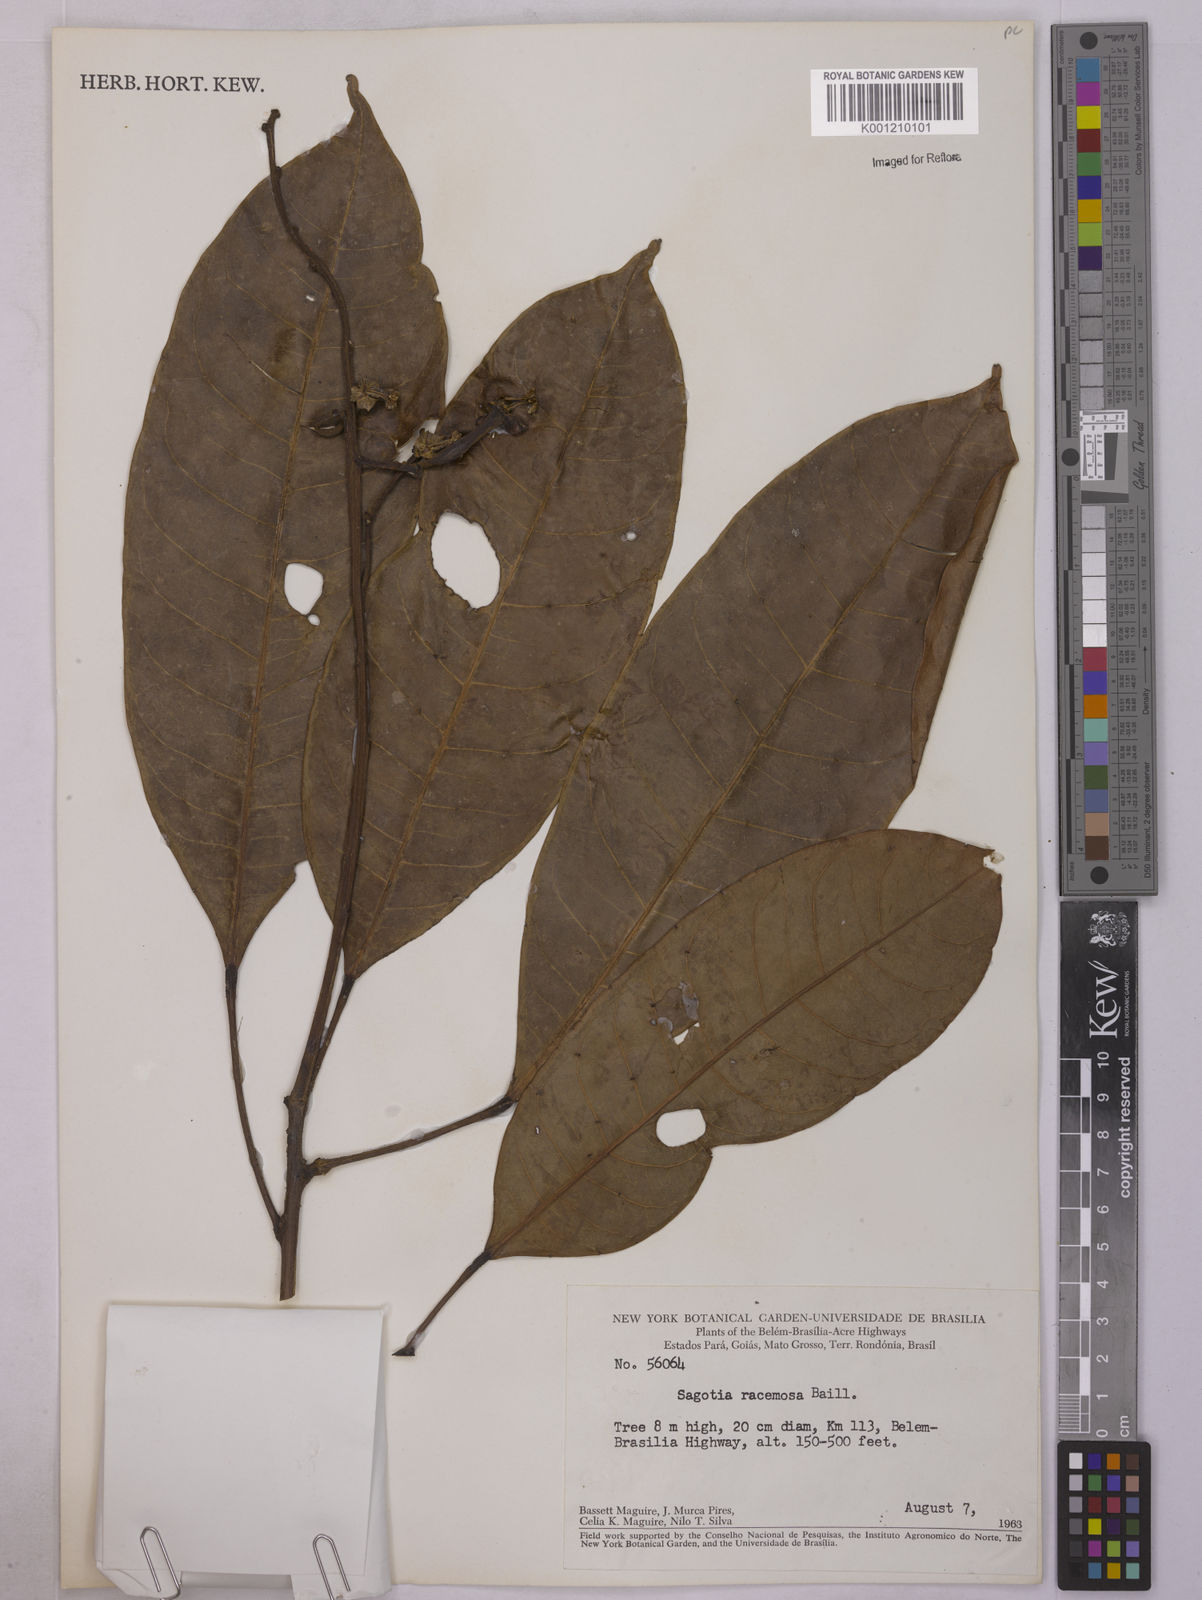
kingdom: Plantae
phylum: Tracheophyta
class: Magnoliopsida
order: Malpighiales
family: Euphorbiaceae
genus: Sagotia
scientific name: Sagotia racemosa
